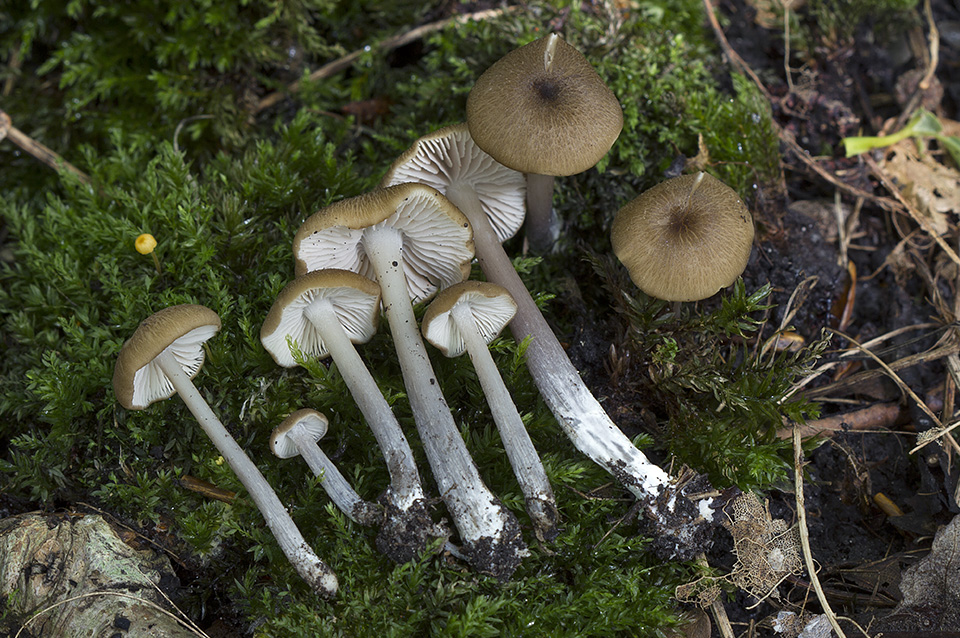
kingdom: Fungi
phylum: Basidiomycota
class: Agaricomycetes
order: Agaricales
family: Entolomataceae
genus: Entoloma
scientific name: Entoloma viiduense
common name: purpurbrun rødblad
